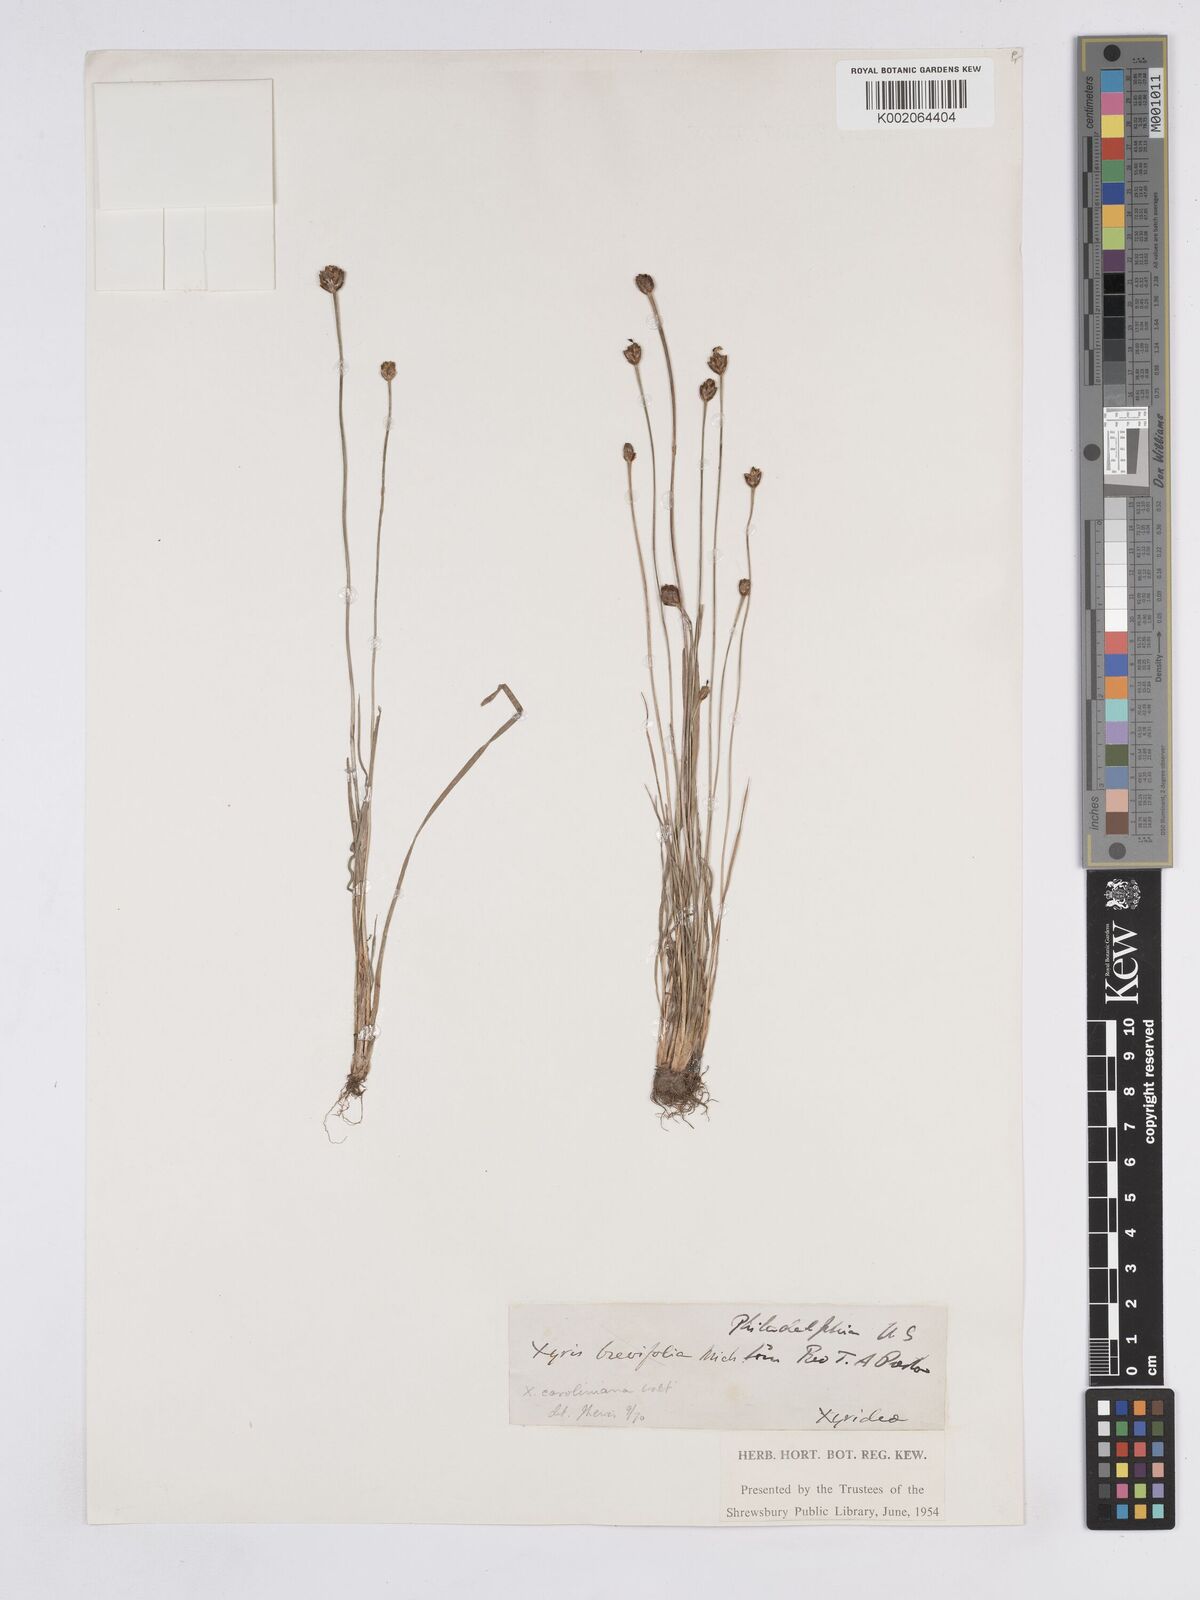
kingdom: Plantae
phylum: Tracheophyta
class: Liliopsida
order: Poales
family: Xyridaceae
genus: Xyris
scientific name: Xyris caroliniana
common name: Carolina yellow-eyed-grass
